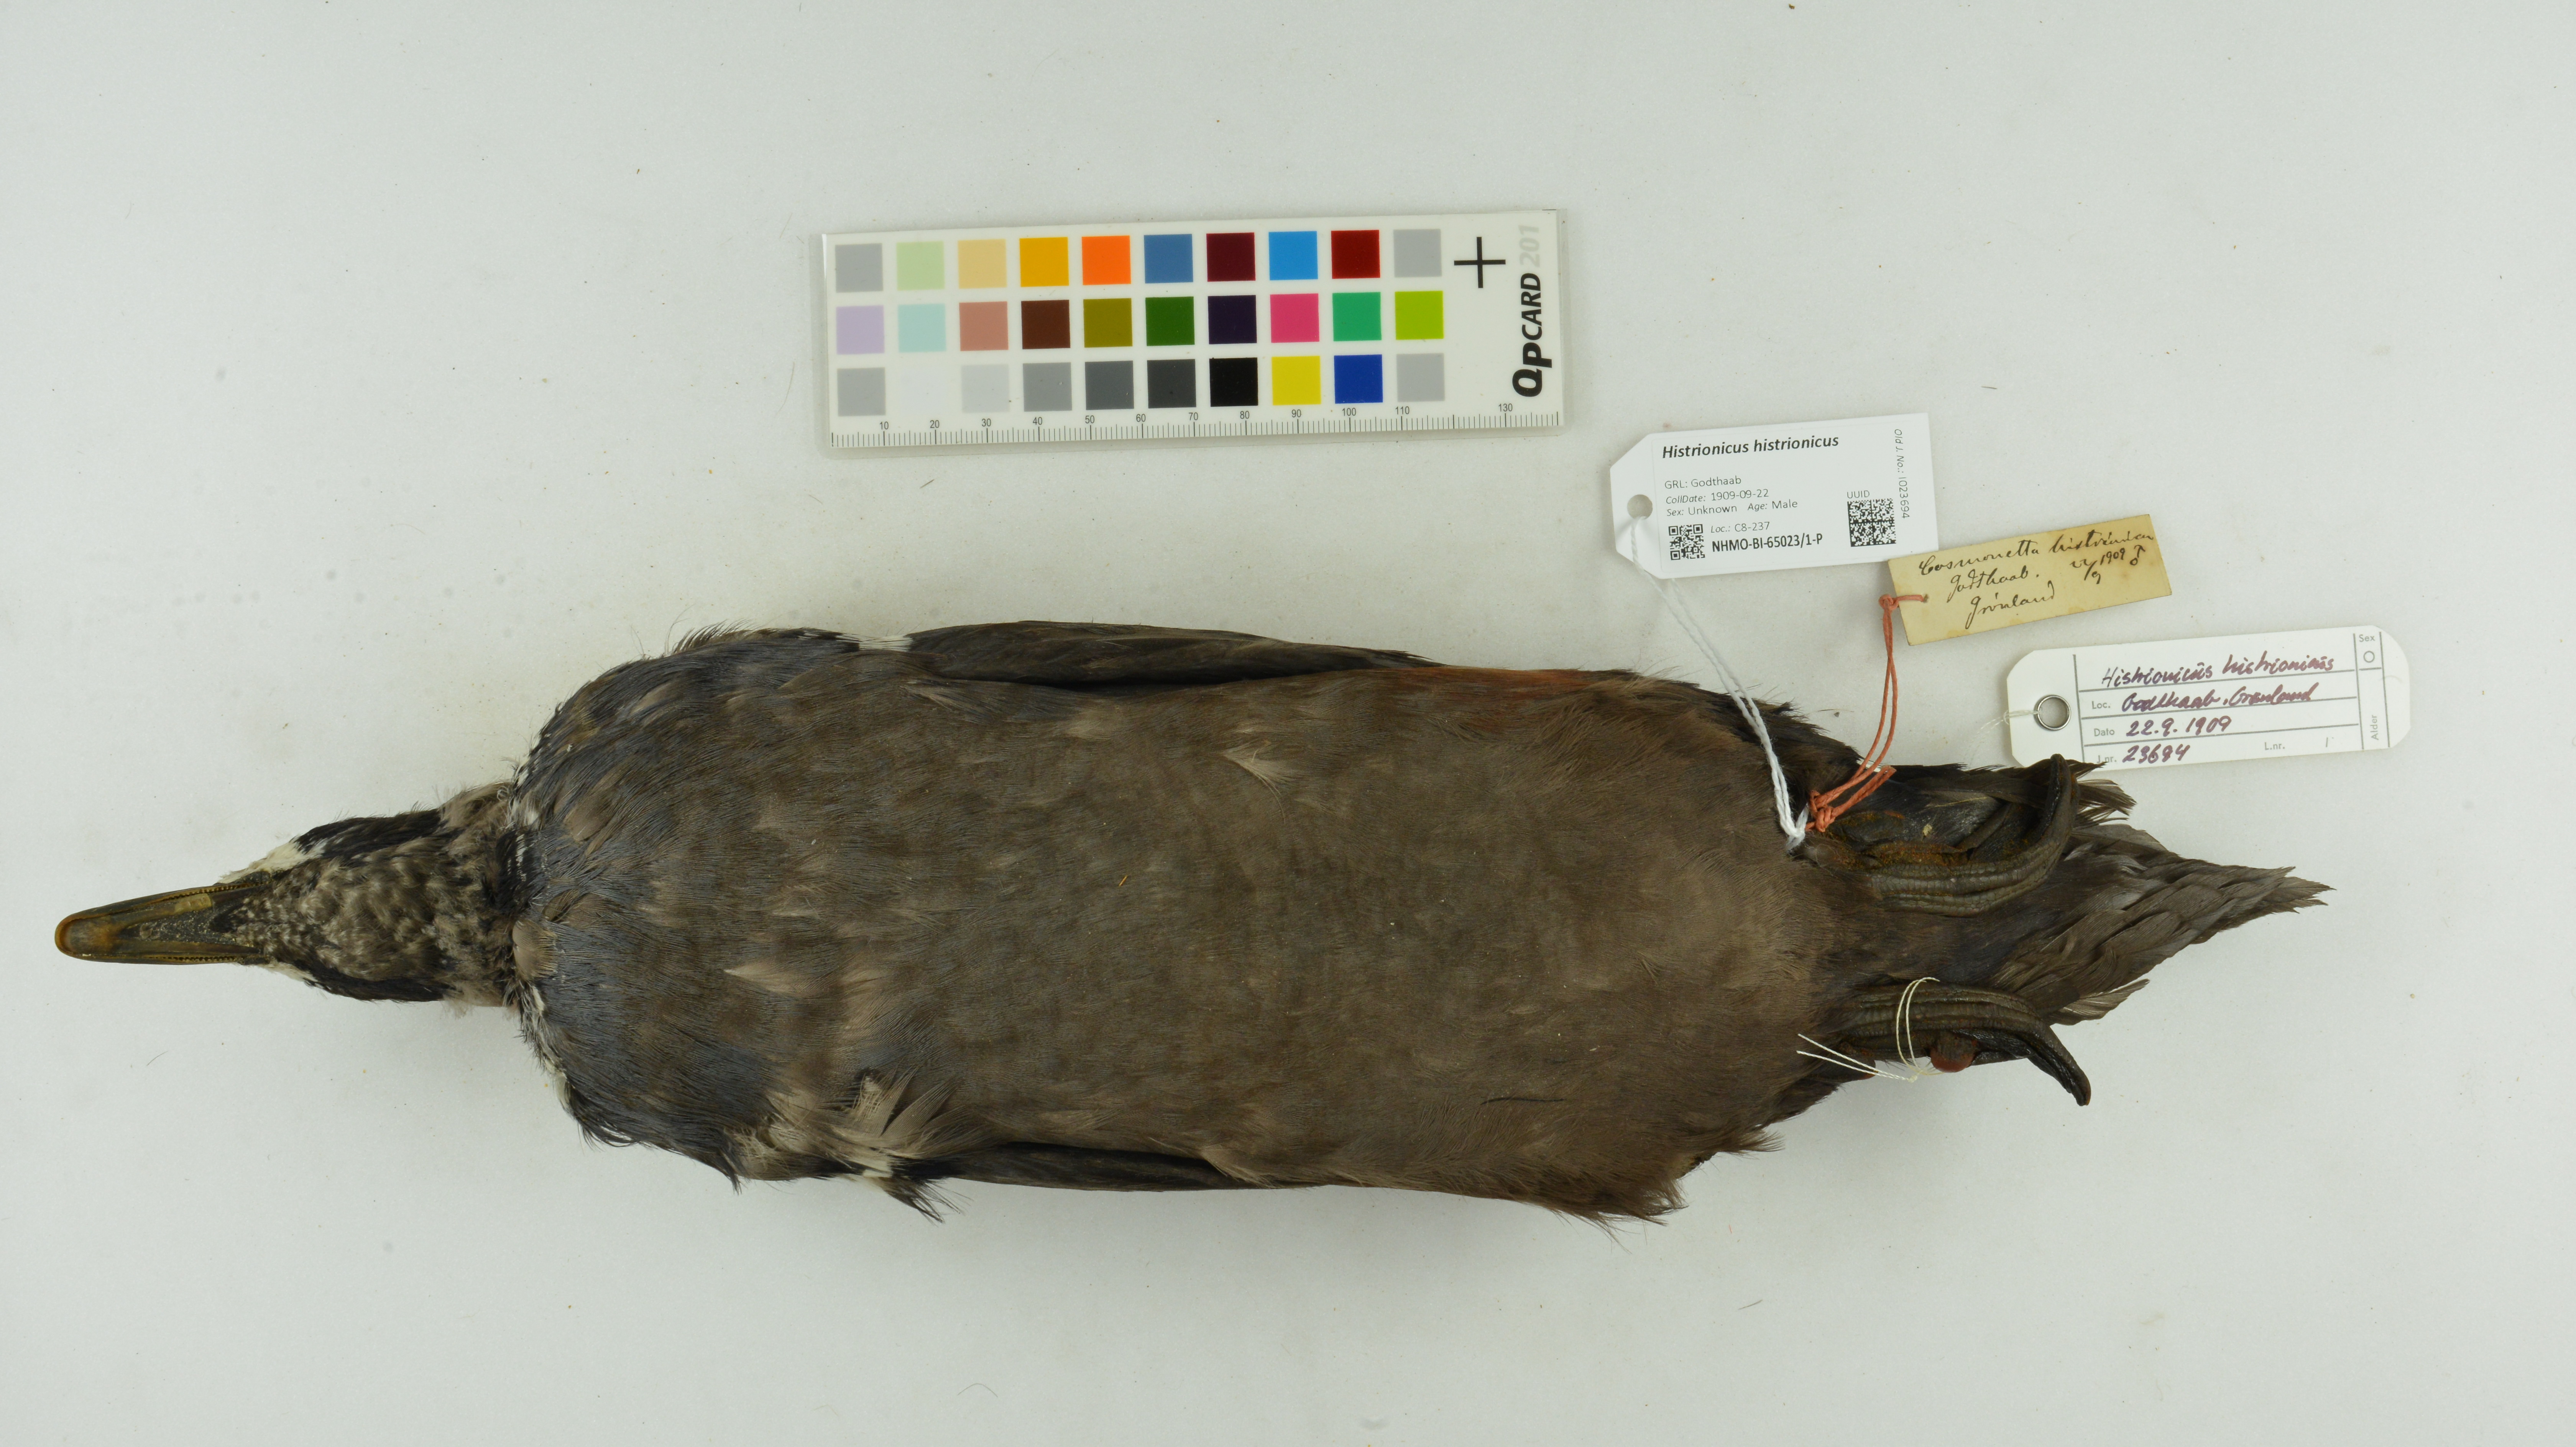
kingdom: Animalia
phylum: Chordata
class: Aves
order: Anseriformes
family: Anatidae
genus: Histrionicus
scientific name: Histrionicus histrionicus
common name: Harlequin duck
